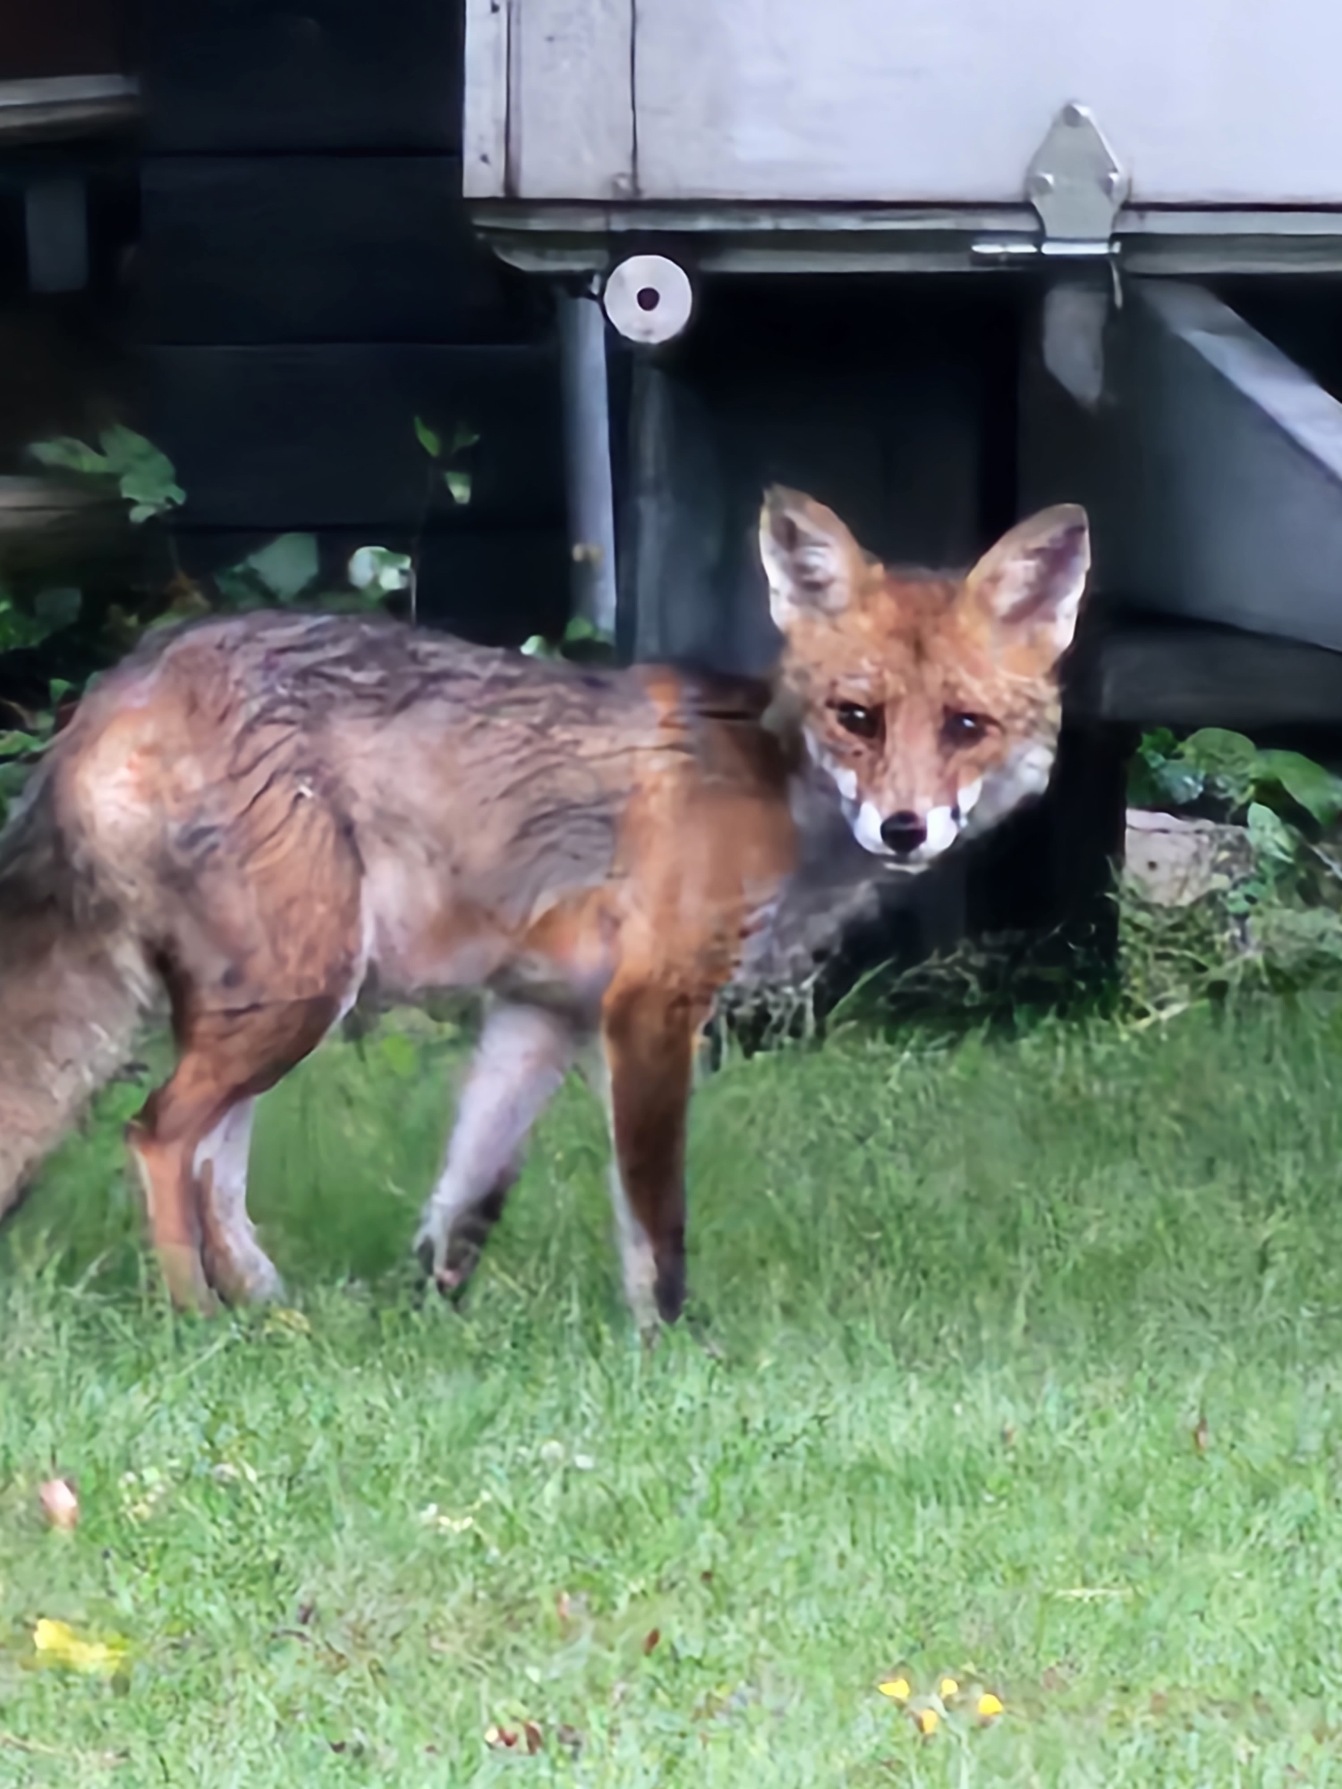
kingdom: Animalia
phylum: Chordata
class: Mammalia
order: Carnivora
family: Canidae
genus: Vulpes
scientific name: Vulpes vulpes
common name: Ræv
